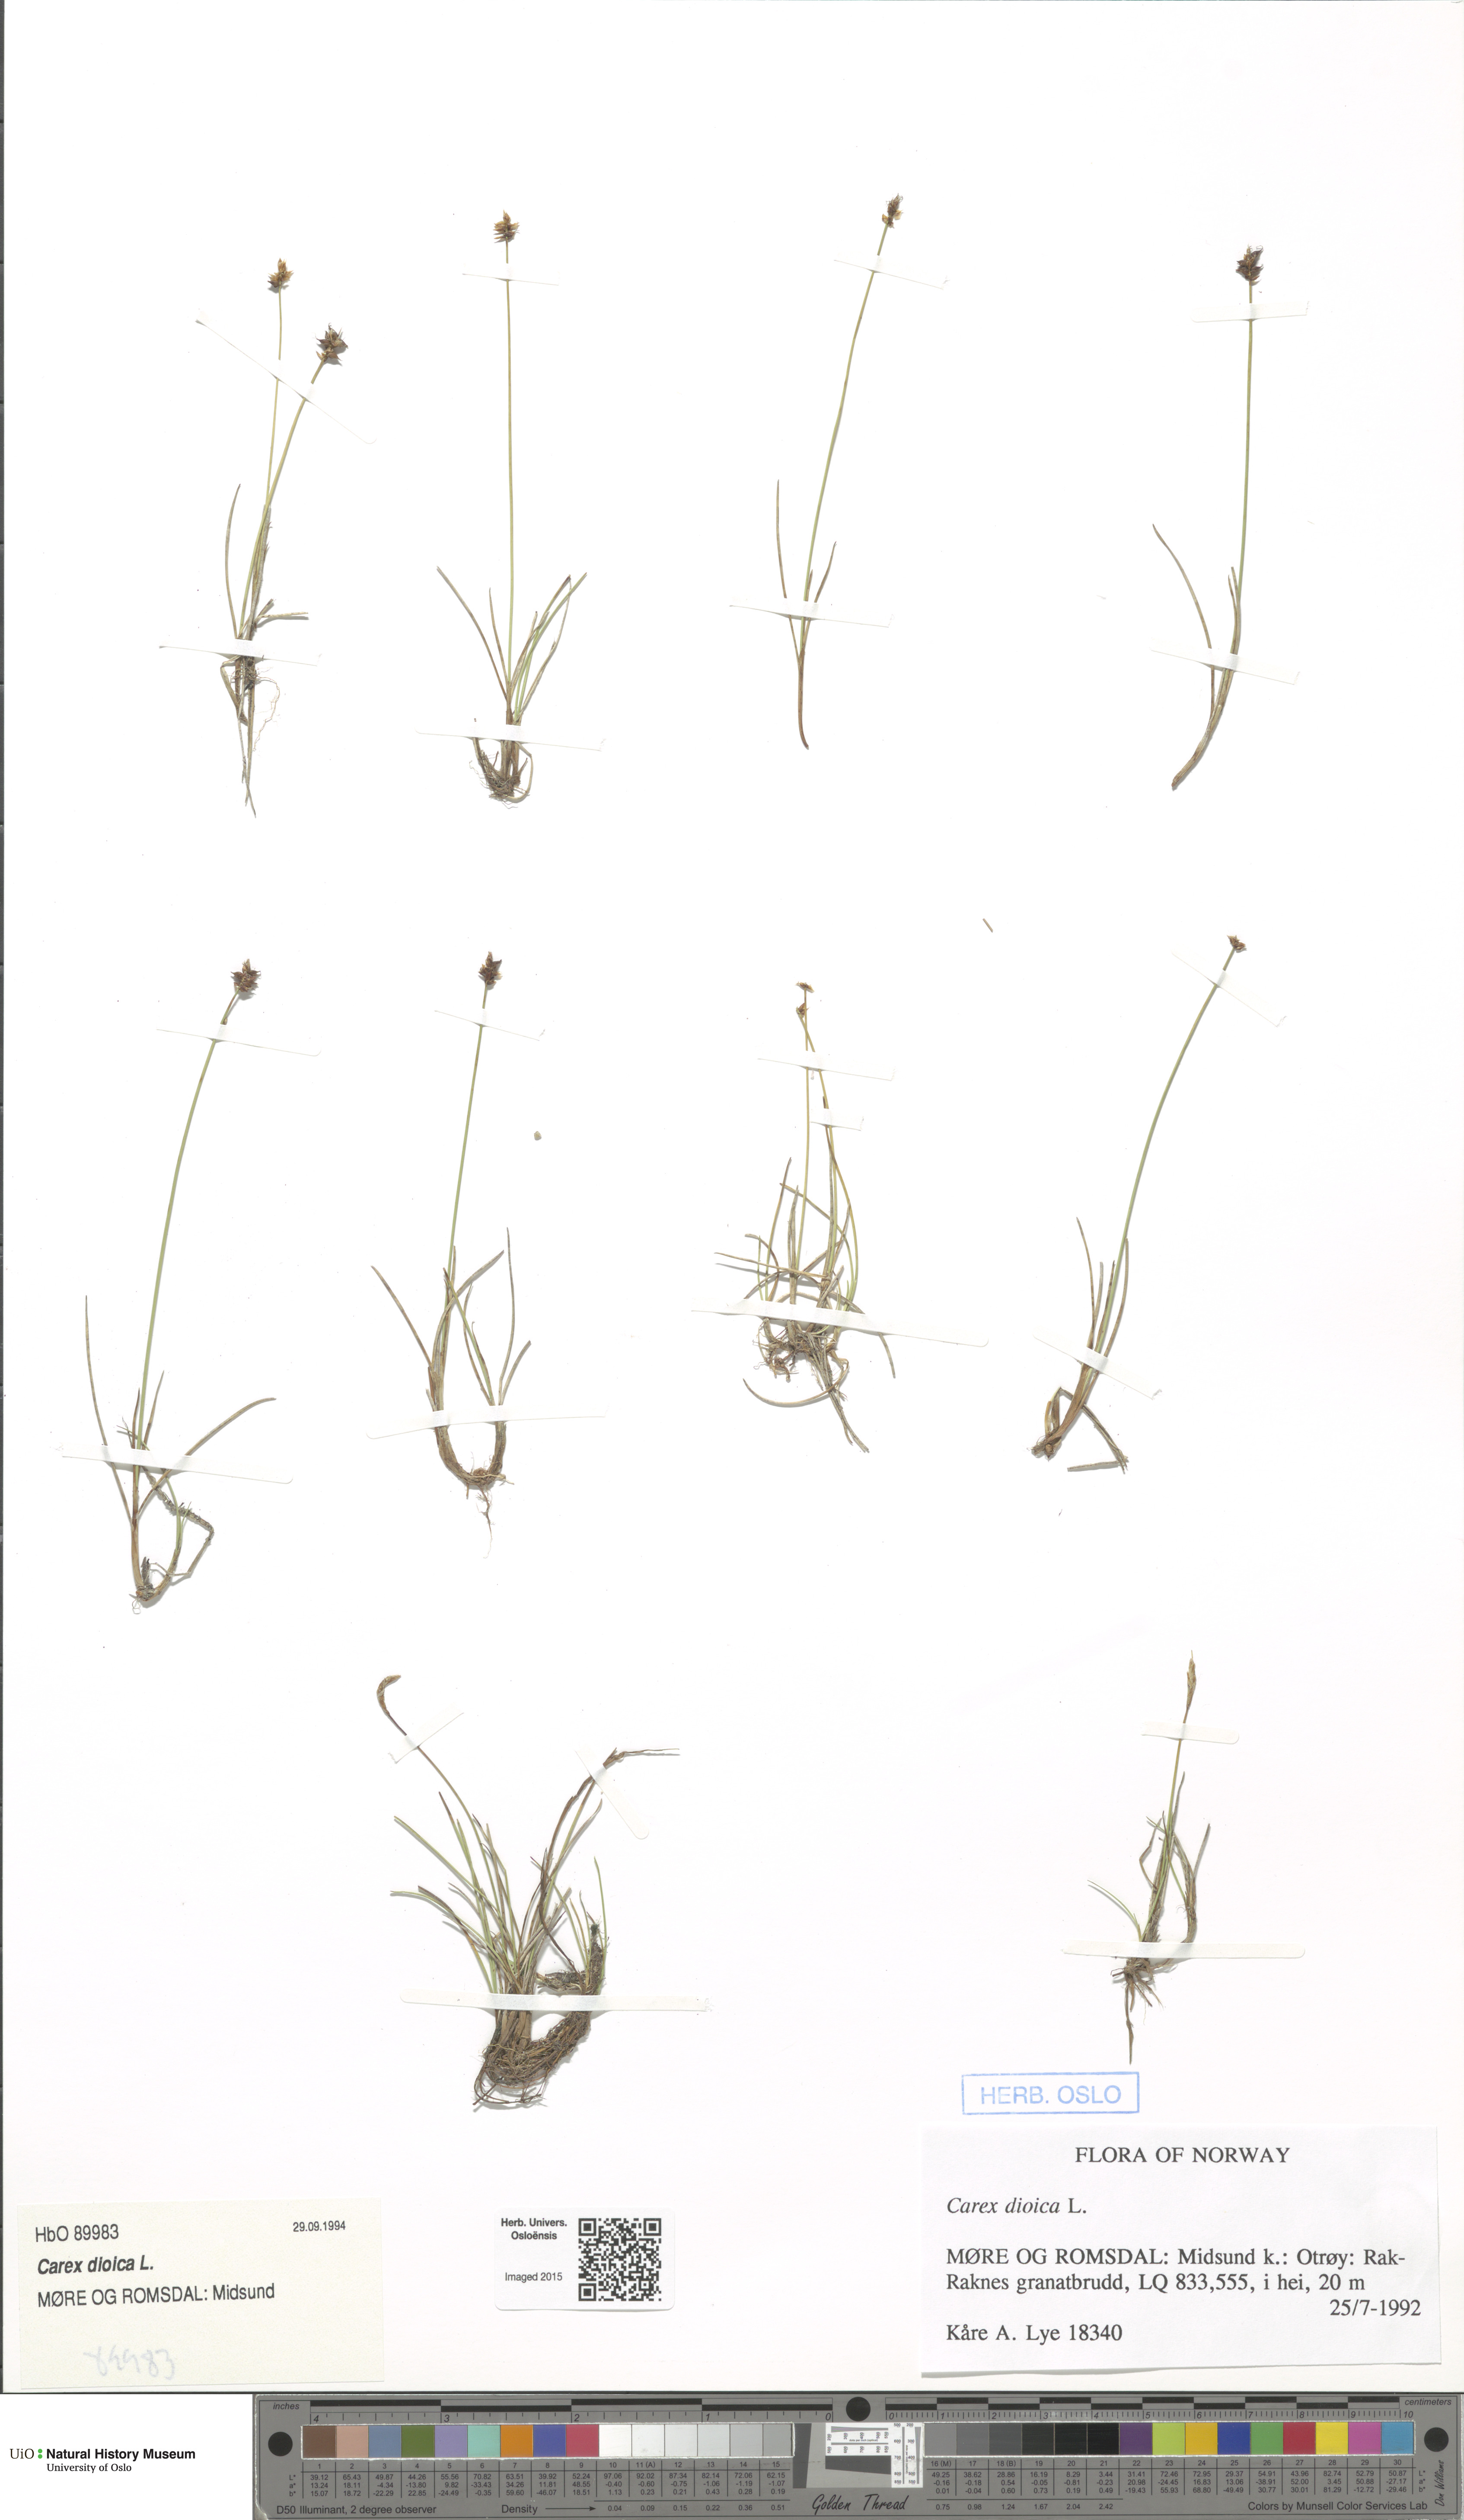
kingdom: Plantae
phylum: Tracheophyta
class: Liliopsida
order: Poales
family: Cyperaceae
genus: Carex
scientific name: Carex dioica
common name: Dioecious sedge
